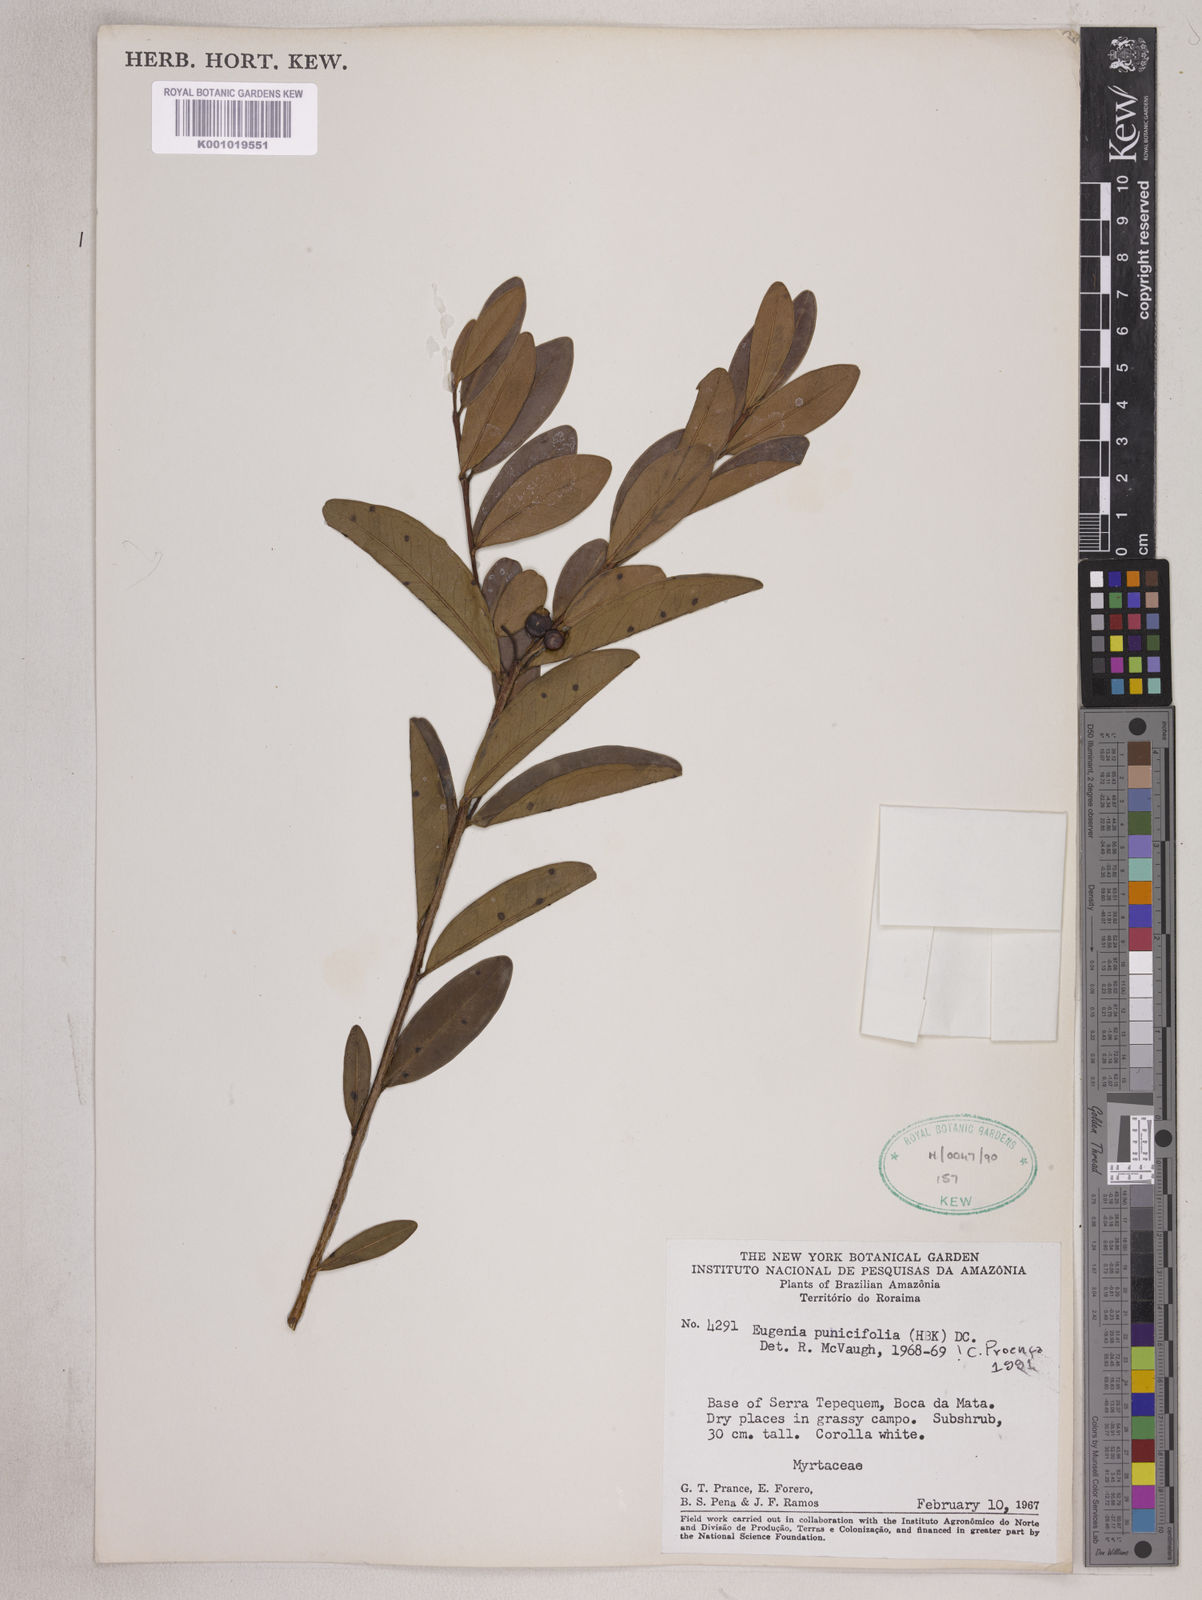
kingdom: Plantae
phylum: Tracheophyta
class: Magnoliopsida
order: Myrtales
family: Myrtaceae
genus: Eugenia
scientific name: Eugenia punicifolia
